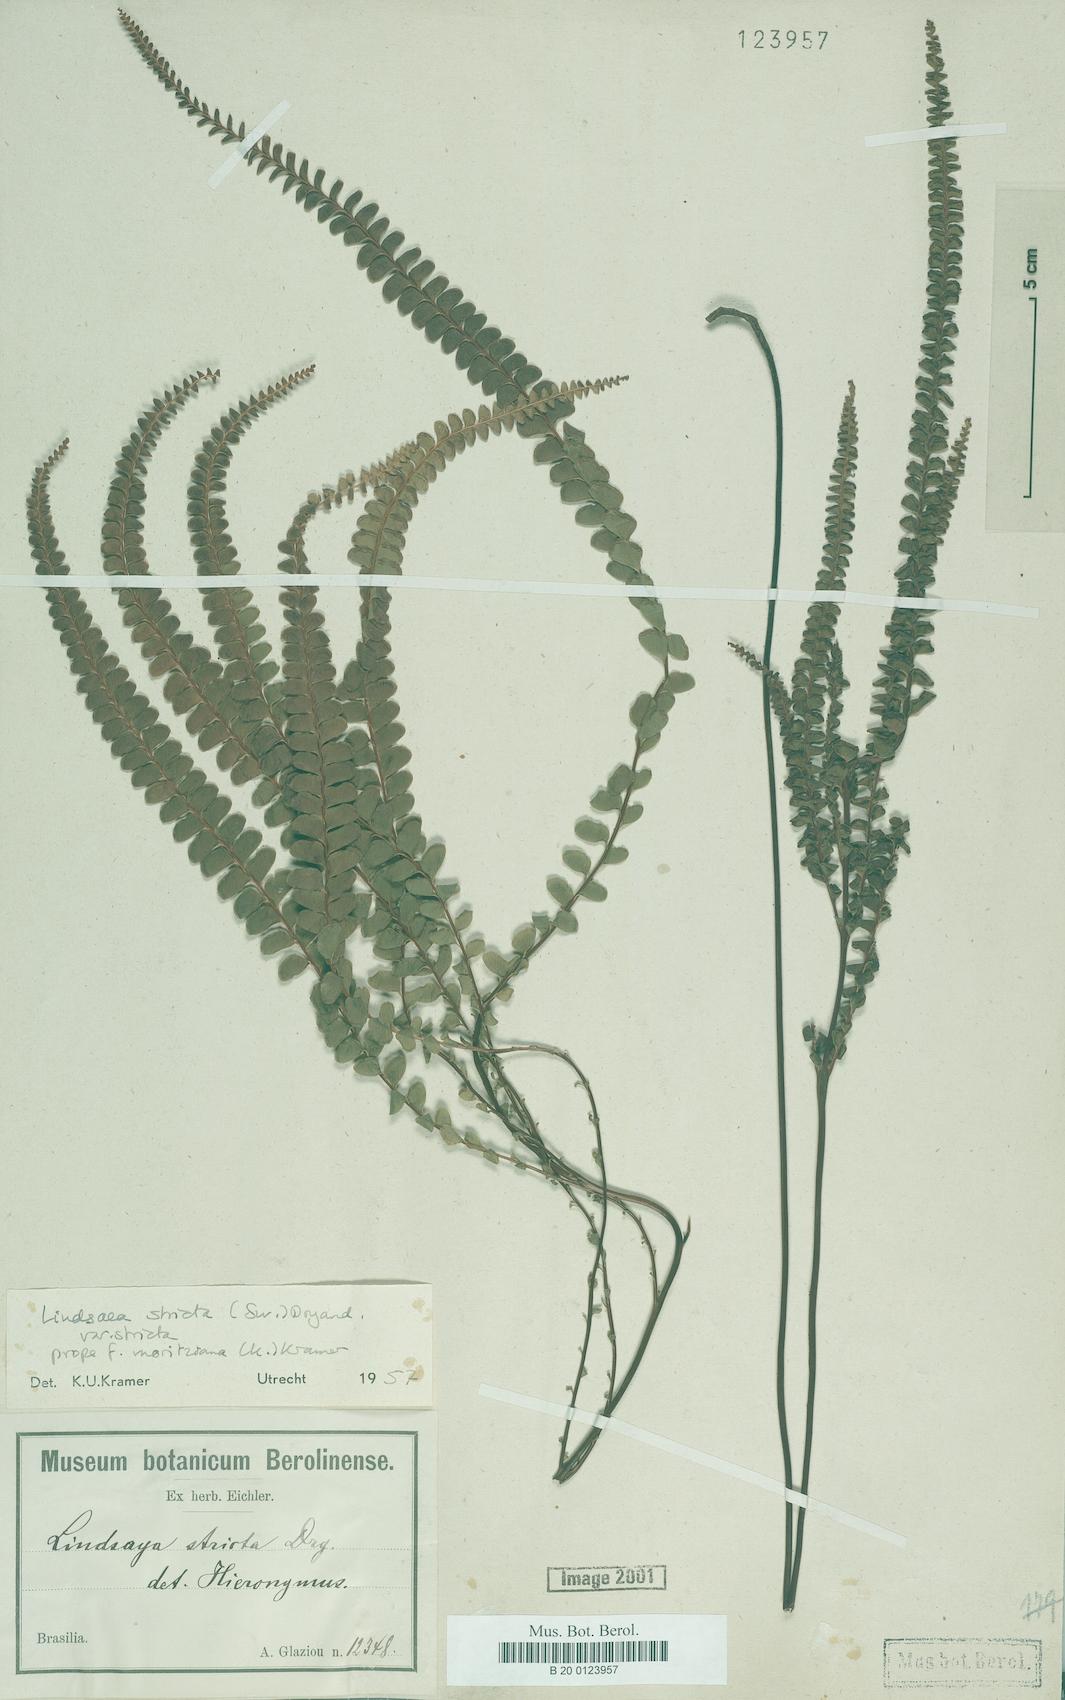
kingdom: Plantae
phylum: Tracheophyta
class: Polypodiopsida
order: Polypodiales
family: Lindsaeaceae
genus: Lindsaea
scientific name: Lindsaea stricta
